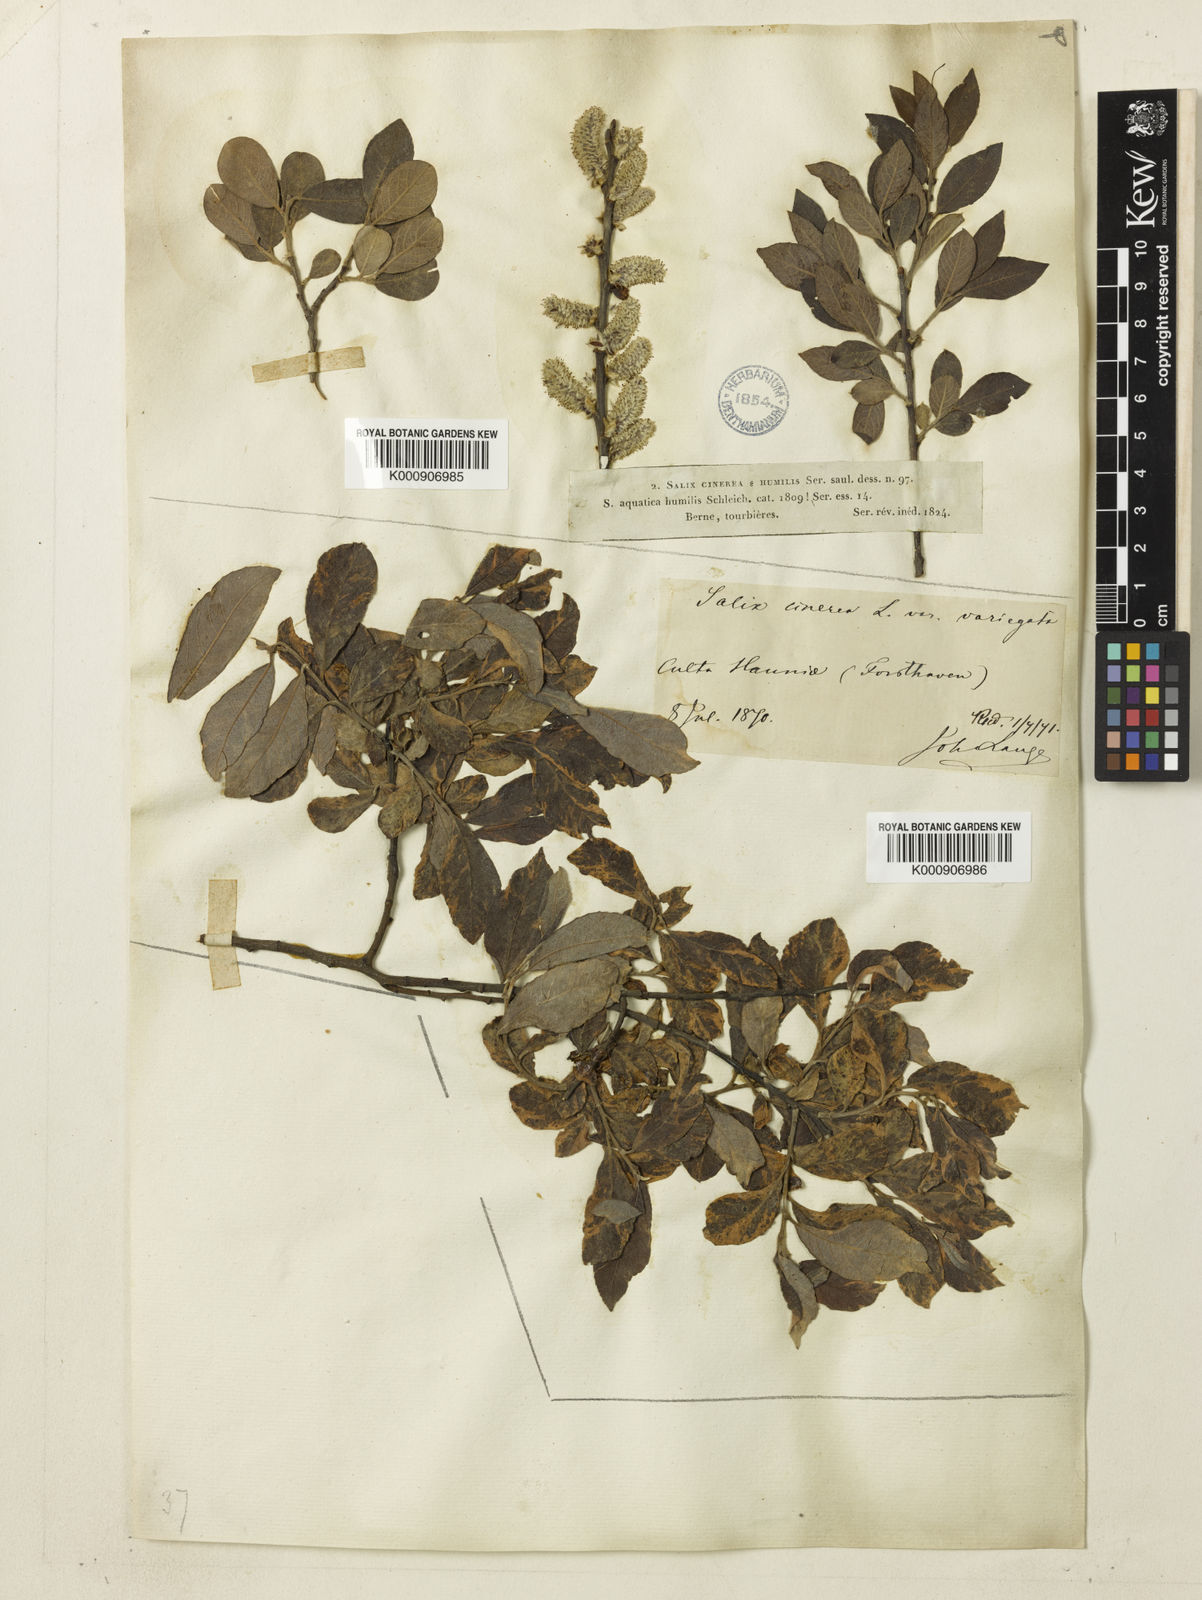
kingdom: Plantae
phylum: Tracheophyta
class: Magnoliopsida
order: Malpighiales
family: Salicaceae
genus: Salix
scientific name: Salix cinerea
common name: Common sallow
